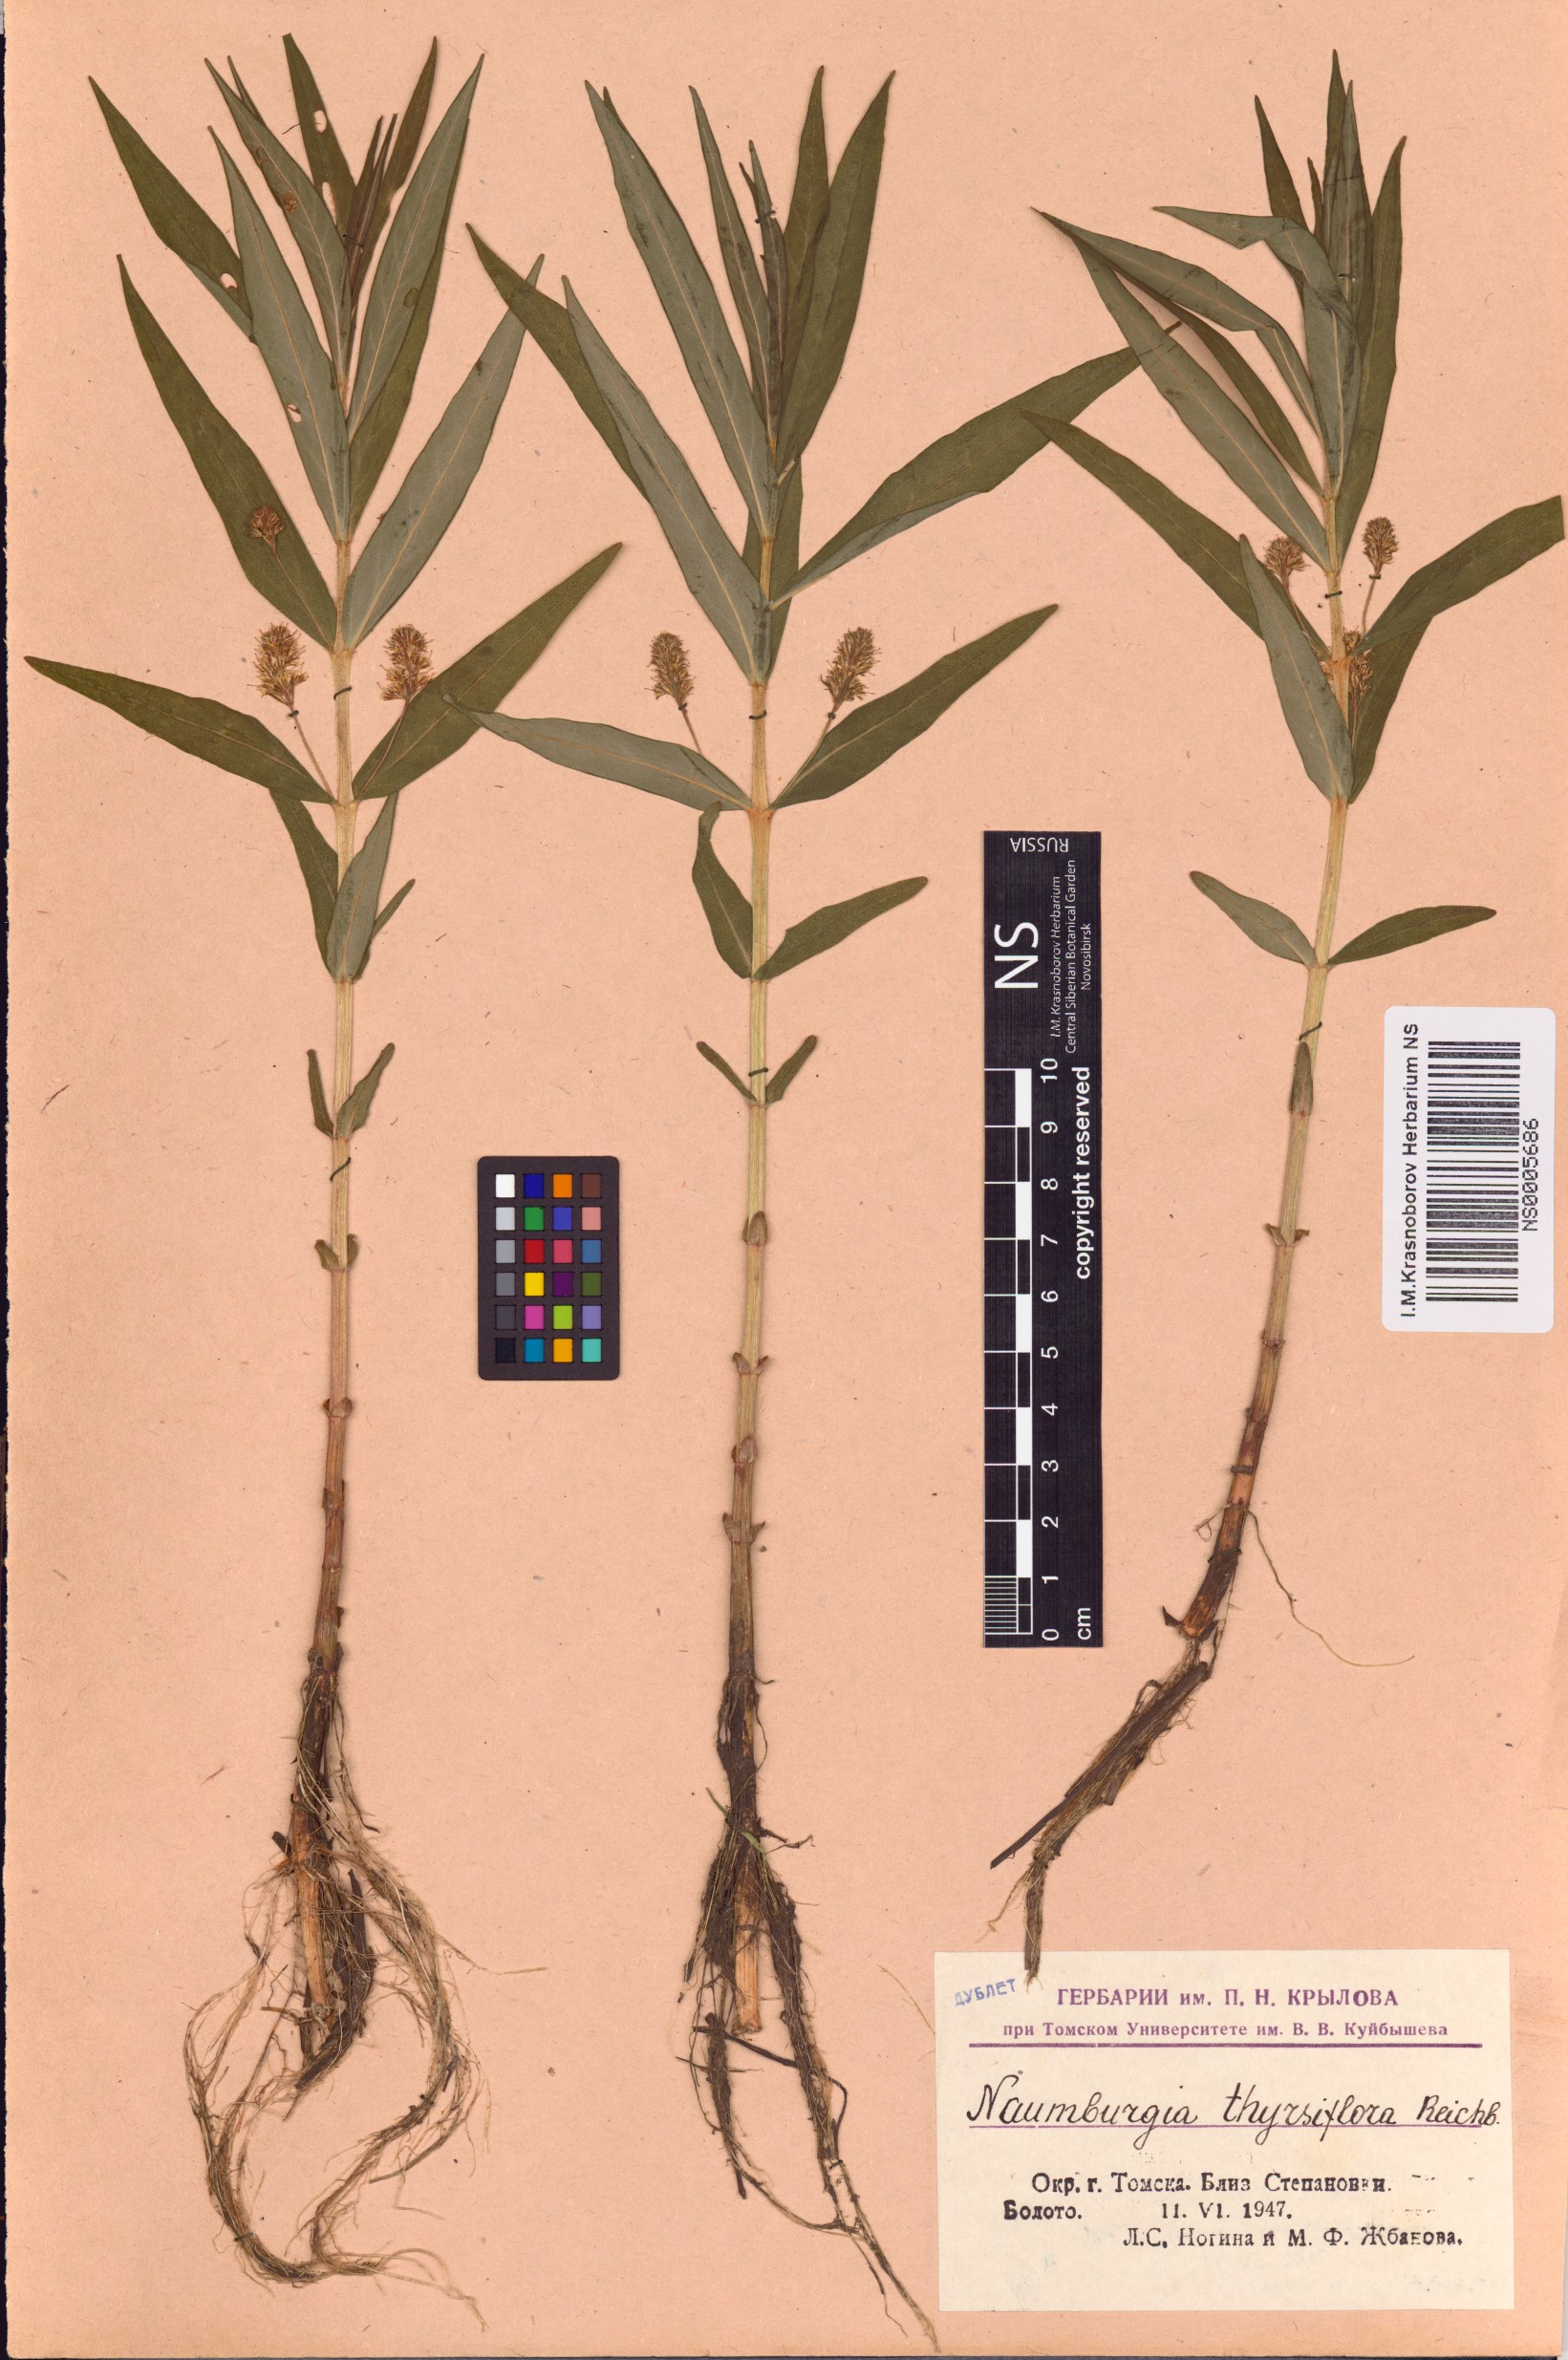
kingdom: Plantae
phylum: Tracheophyta
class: Magnoliopsida
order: Ericales
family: Primulaceae
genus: Lysimachia
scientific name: Lysimachia thyrsiflora
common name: Tufted loosestrife
